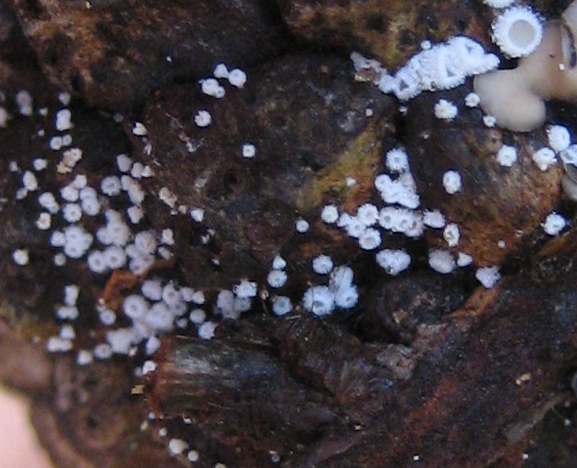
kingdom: Fungi
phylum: Ascomycota
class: Leotiomycetes
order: Helotiales
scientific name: Helotiales
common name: stilkskiveordenen
